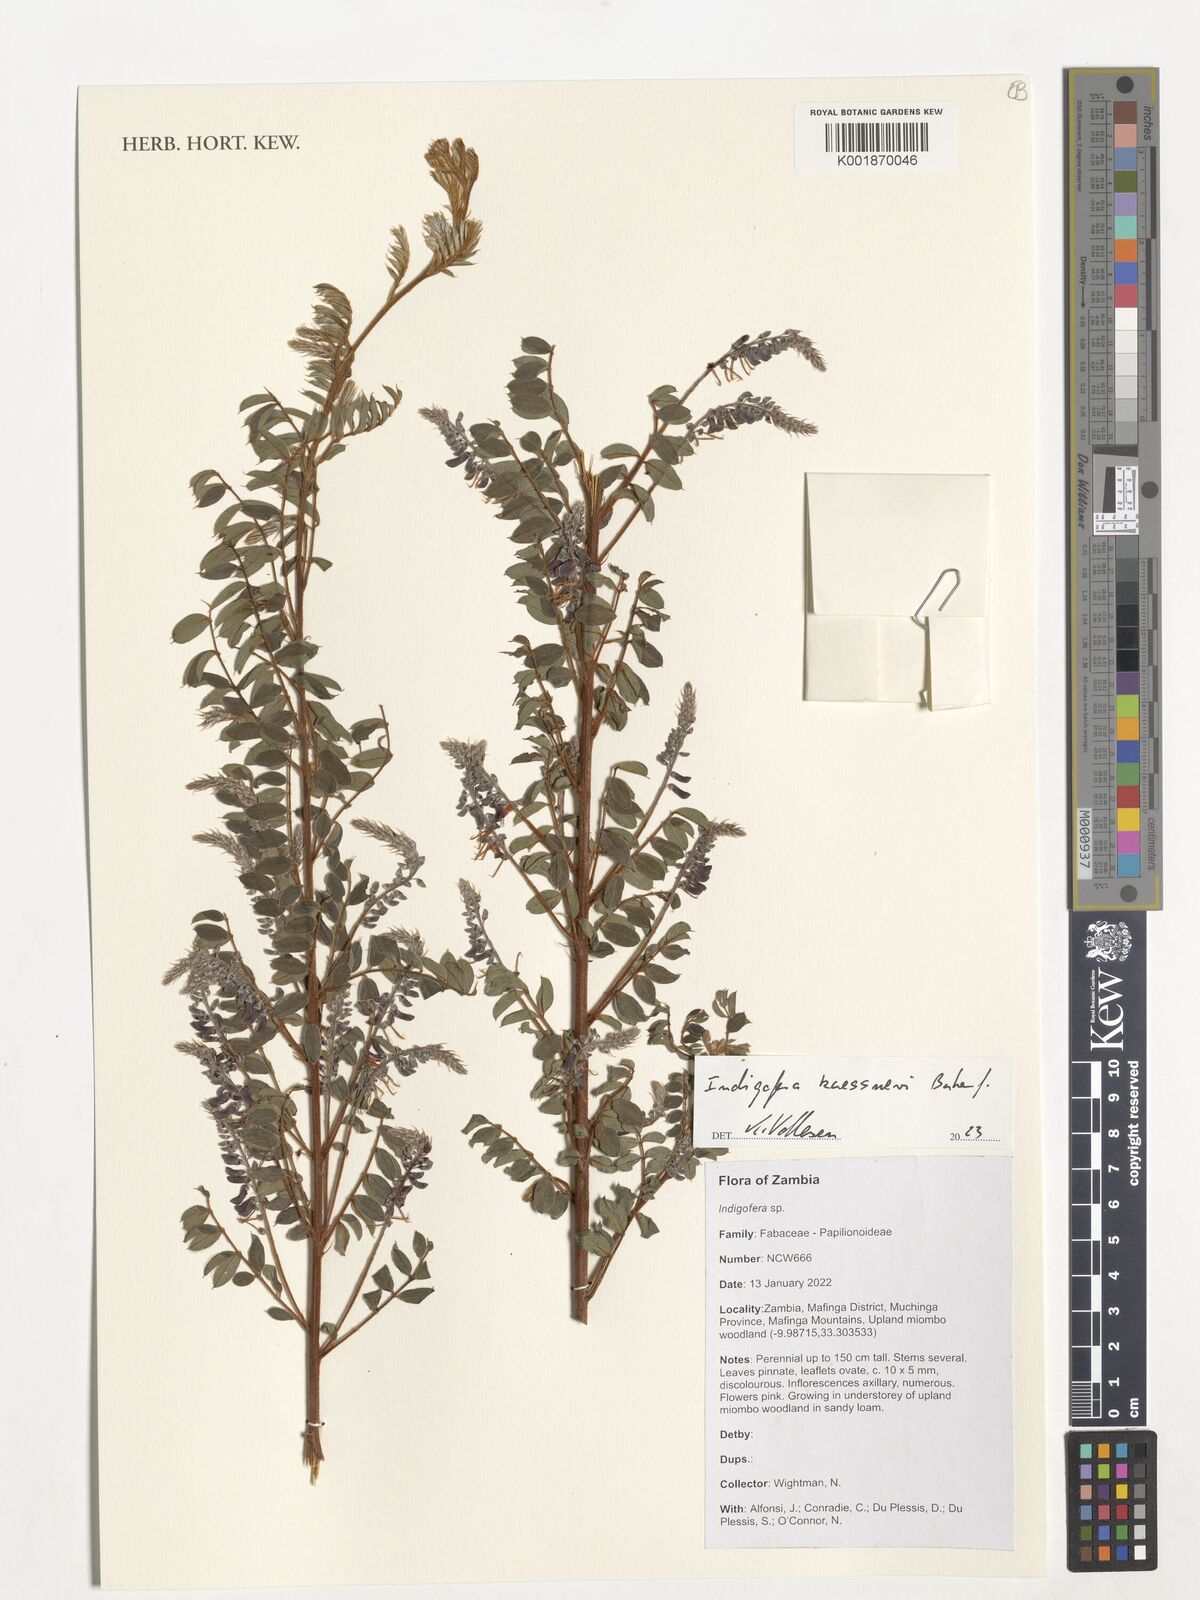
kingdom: Plantae
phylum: Tracheophyta
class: Magnoliopsida
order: Fabales
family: Fabaceae
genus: Indigofera
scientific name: Indigofera kaessneri
